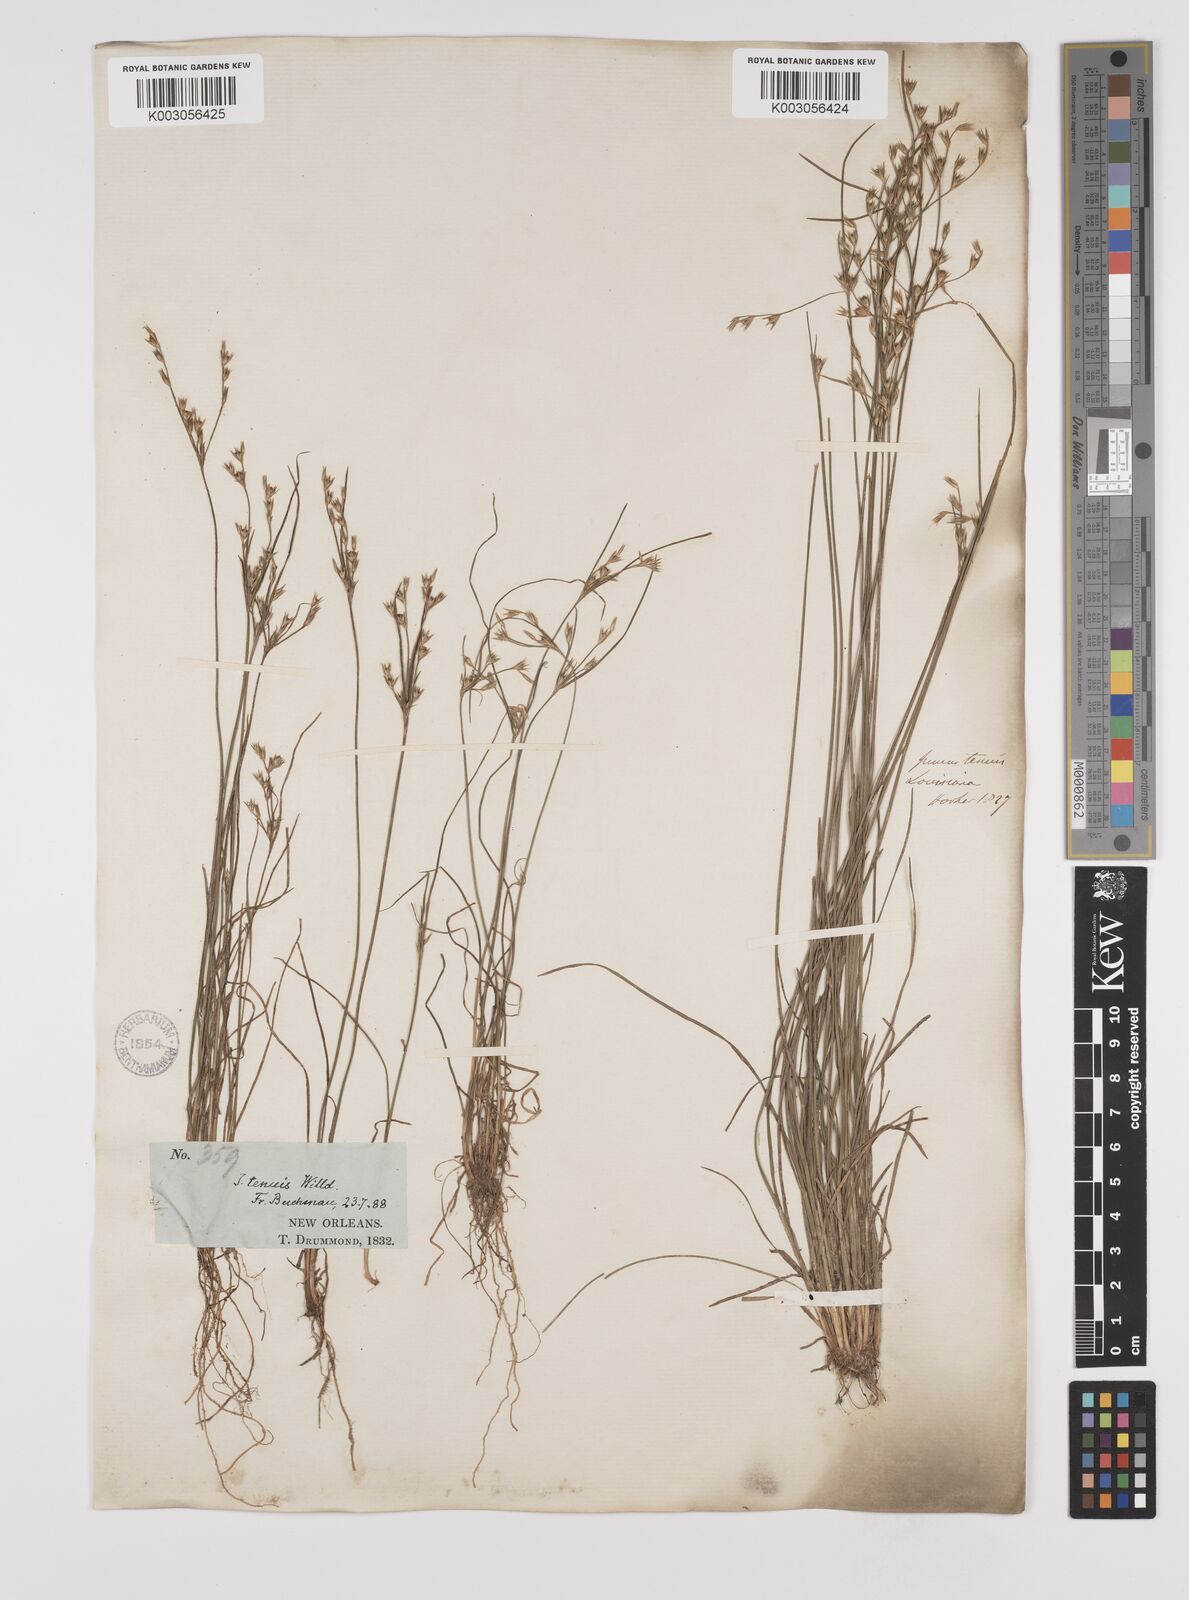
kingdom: Plantae
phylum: Tracheophyta
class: Liliopsida
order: Poales
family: Juncaceae
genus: Juncus
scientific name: Juncus tenuis
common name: Slender rush
